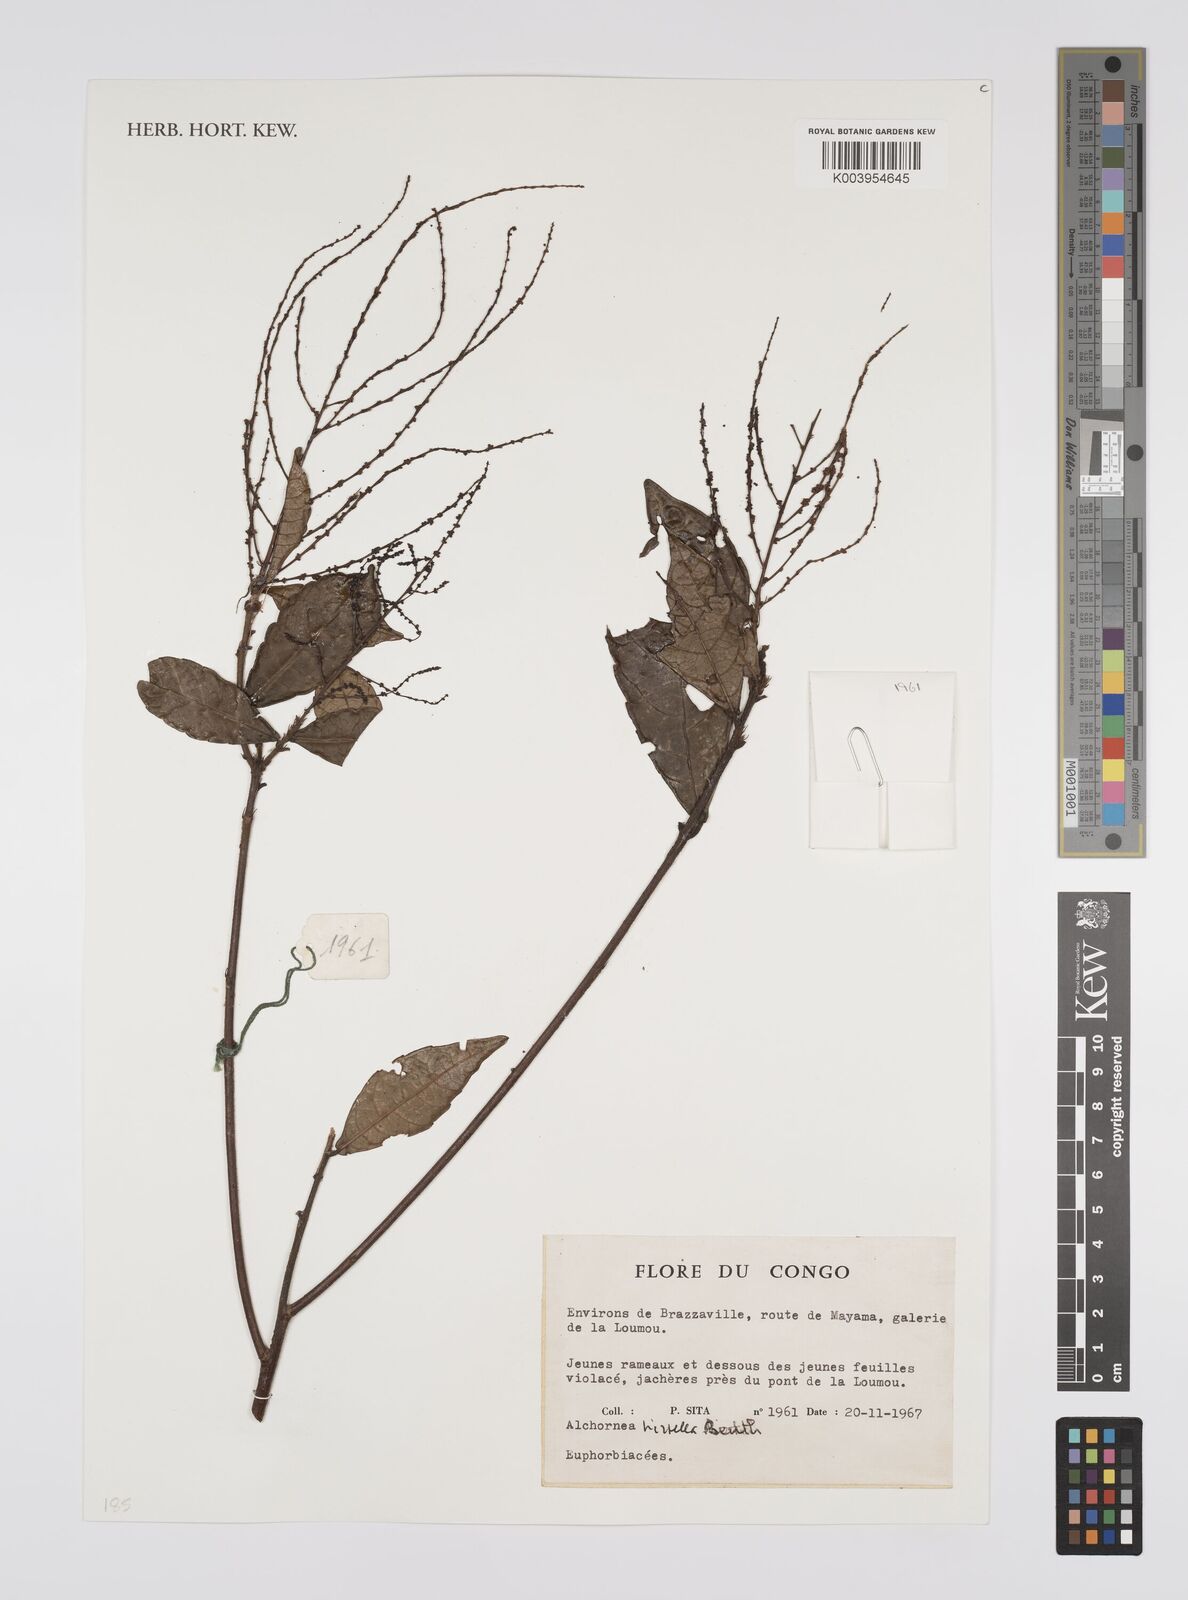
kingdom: Plantae
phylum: Tracheophyta
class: Magnoliopsida
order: Malpighiales
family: Euphorbiaceae
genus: Alchornea
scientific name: Alchornea hirtella
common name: Forest bead-string
